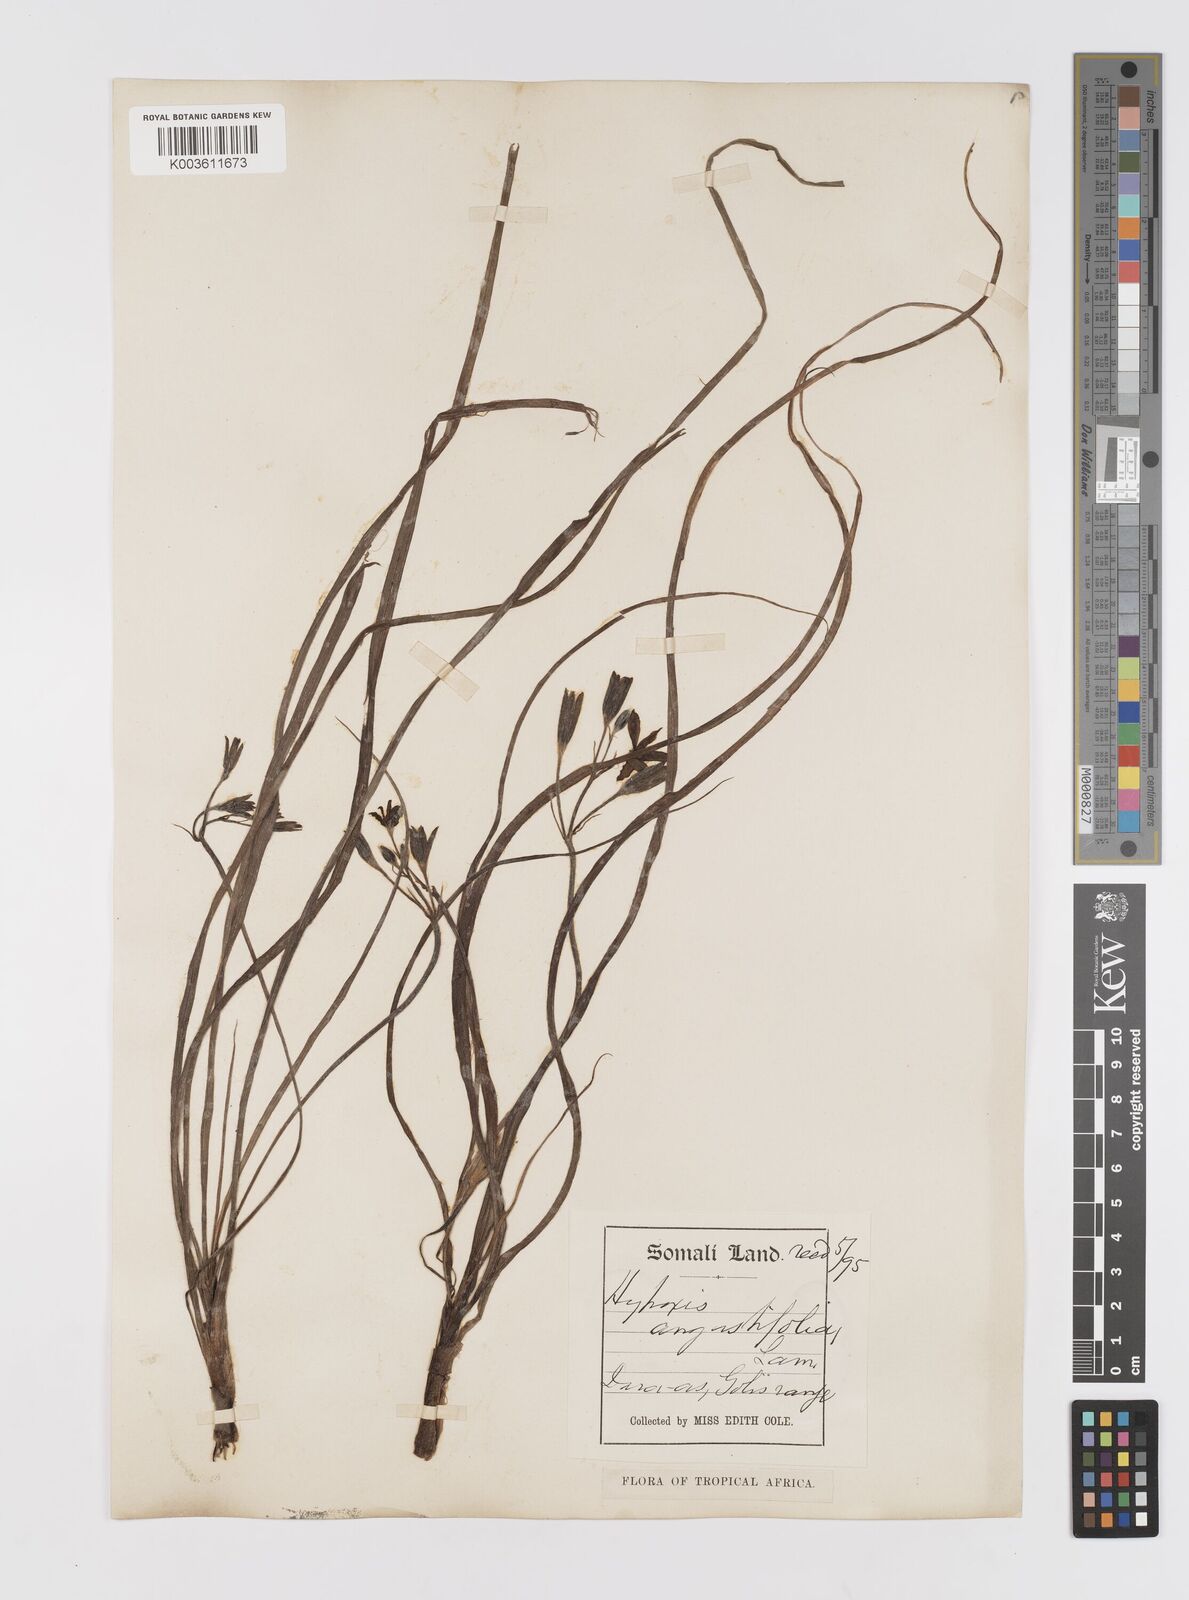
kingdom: Plantae
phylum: Tracheophyta
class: Liliopsida
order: Asparagales
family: Hypoxidaceae
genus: Hypoxis
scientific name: Hypoxis angustifolia
